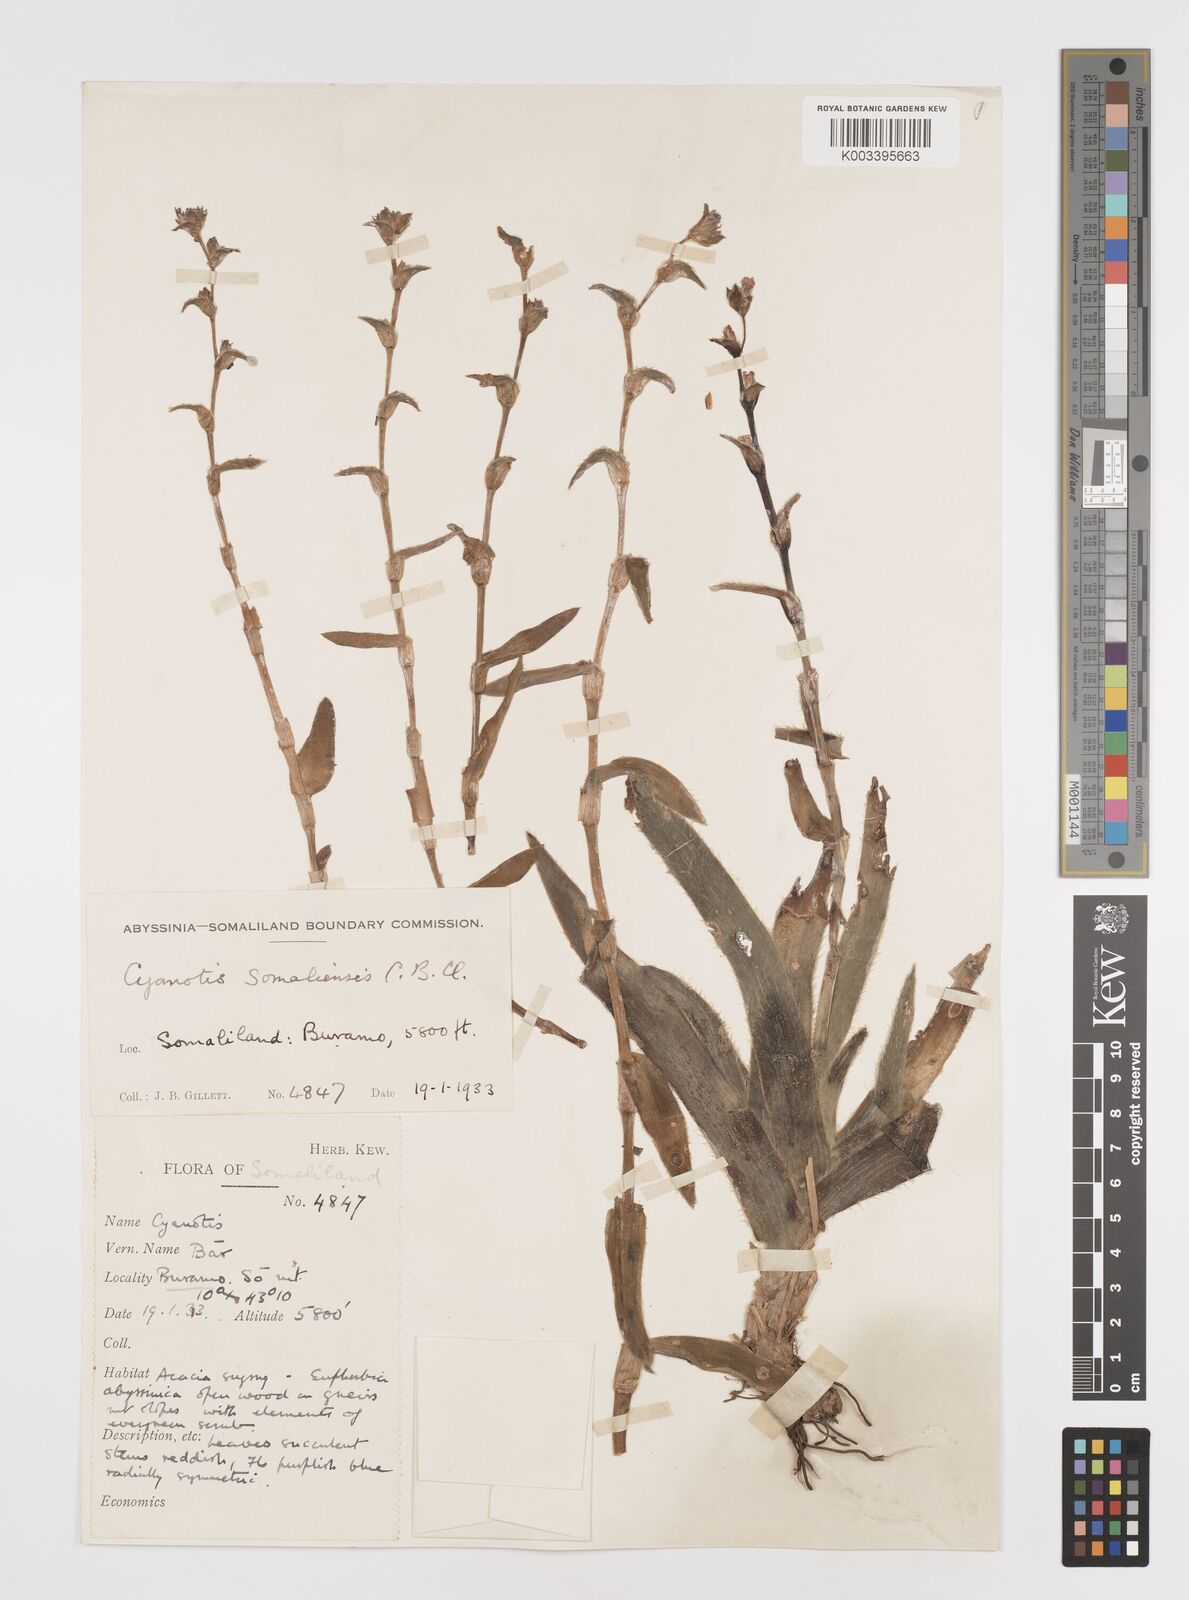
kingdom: Plantae
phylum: Tracheophyta
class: Liliopsida
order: Commelinales
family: Commelinaceae
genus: Cyanotis
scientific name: Cyanotis somaliensis
